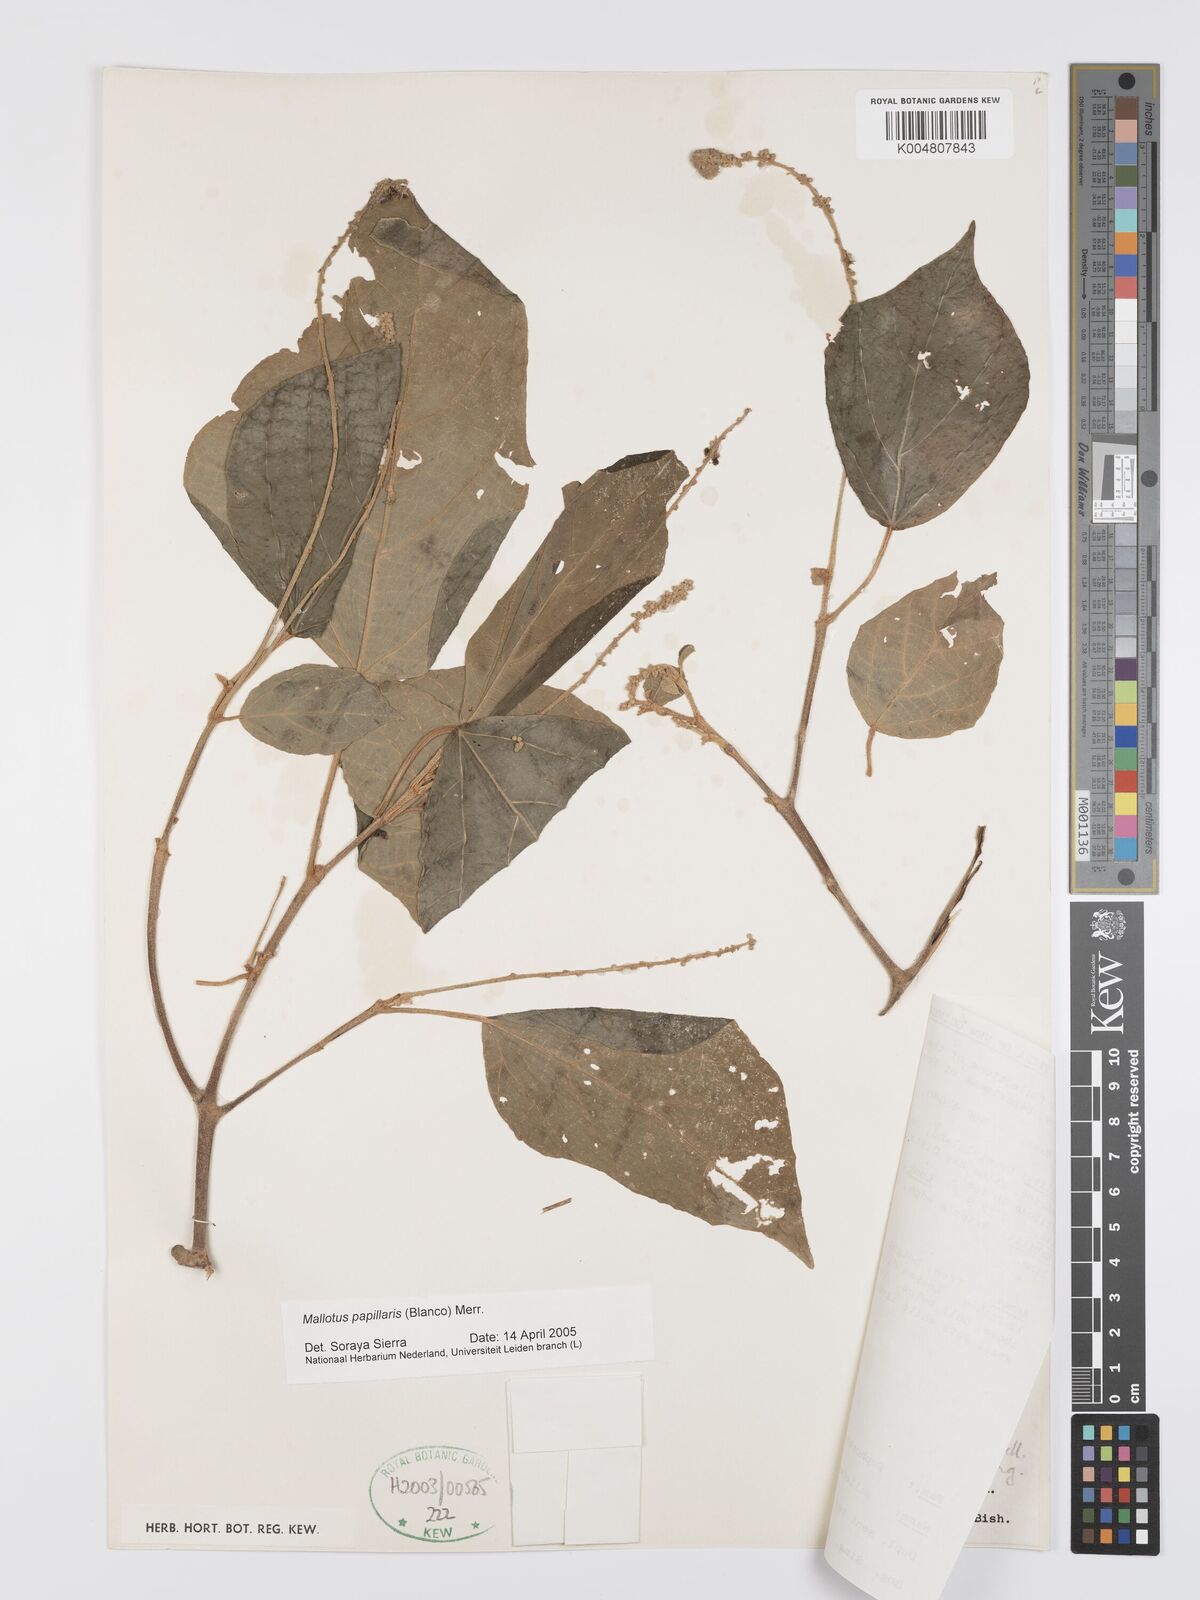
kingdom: Plantae
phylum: Tracheophyta
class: Magnoliopsida
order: Malpighiales
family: Euphorbiaceae
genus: Mallotus
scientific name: Mallotus tiliifolius
